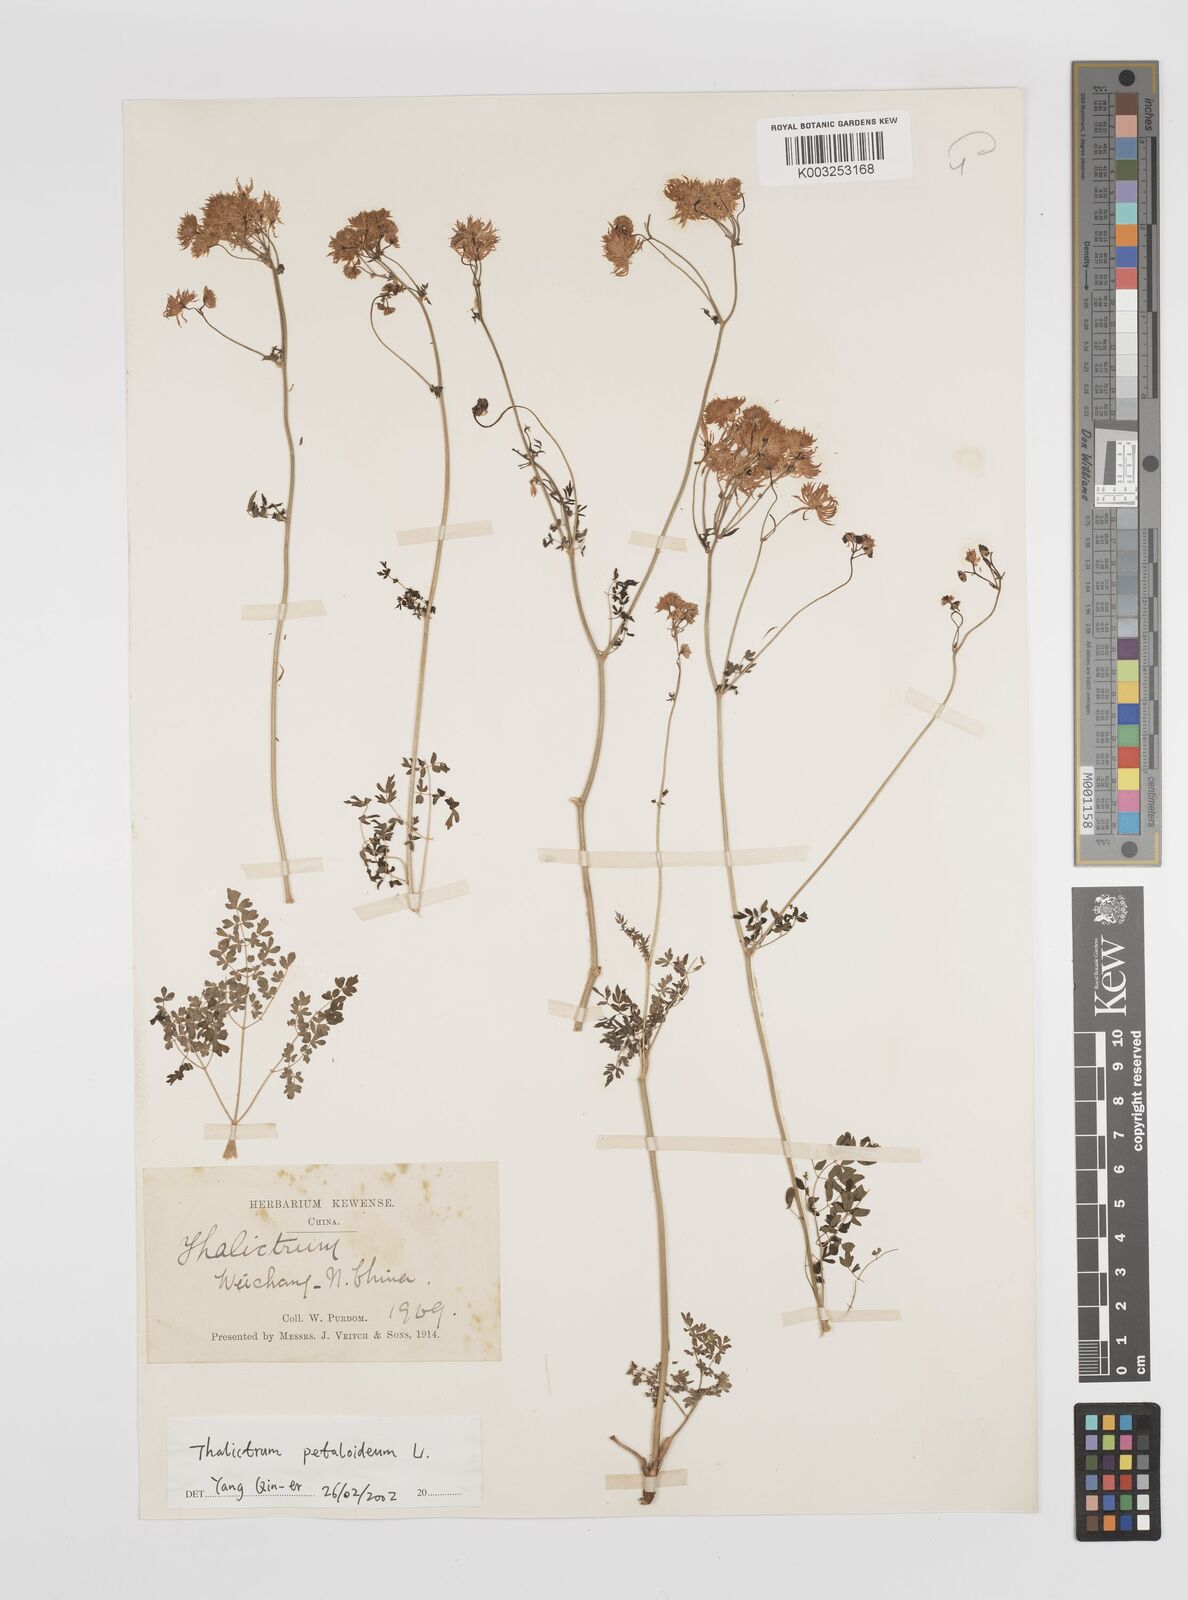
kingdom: Plantae
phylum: Tracheophyta
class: Magnoliopsida
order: Ranunculales
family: Ranunculaceae
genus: Thalictrum
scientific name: Thalictrum petaloideum
